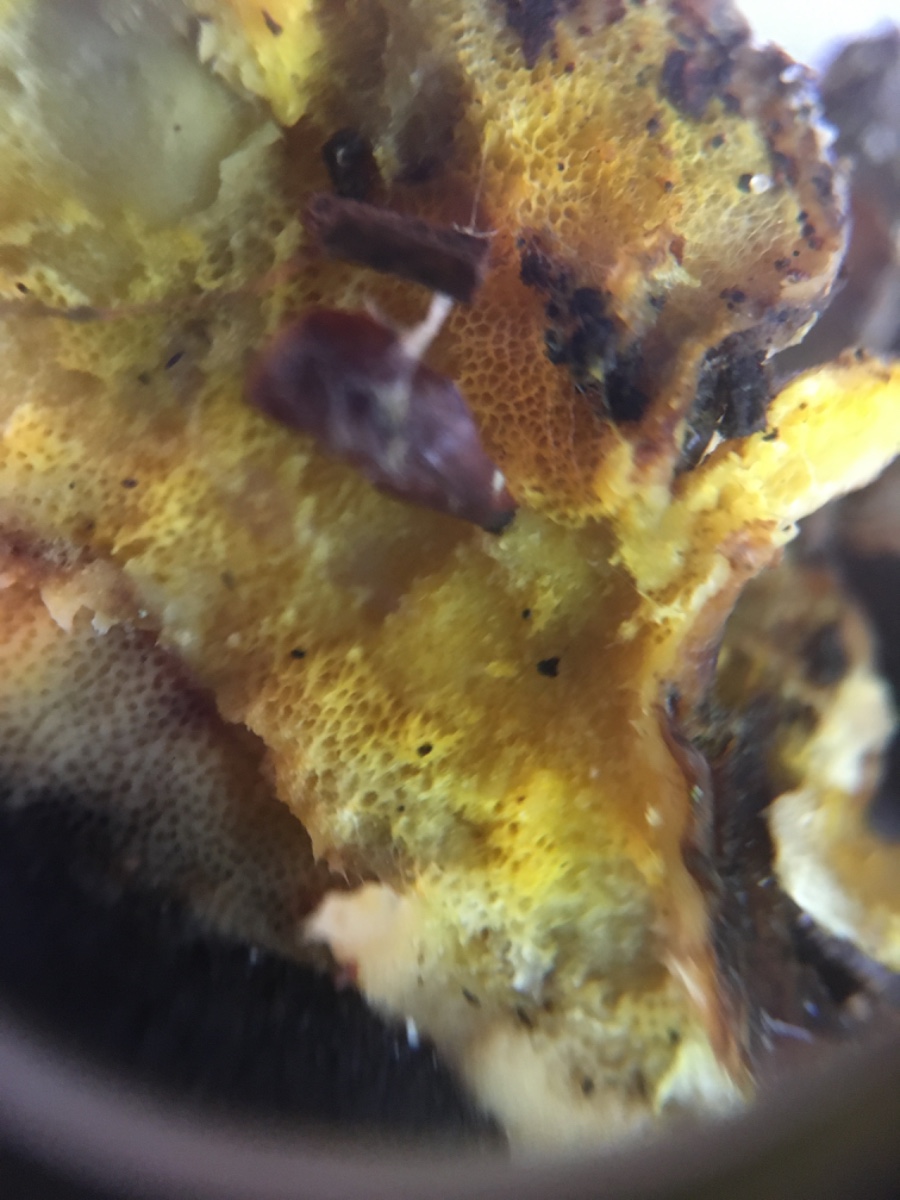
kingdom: Fungi
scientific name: Fungi
